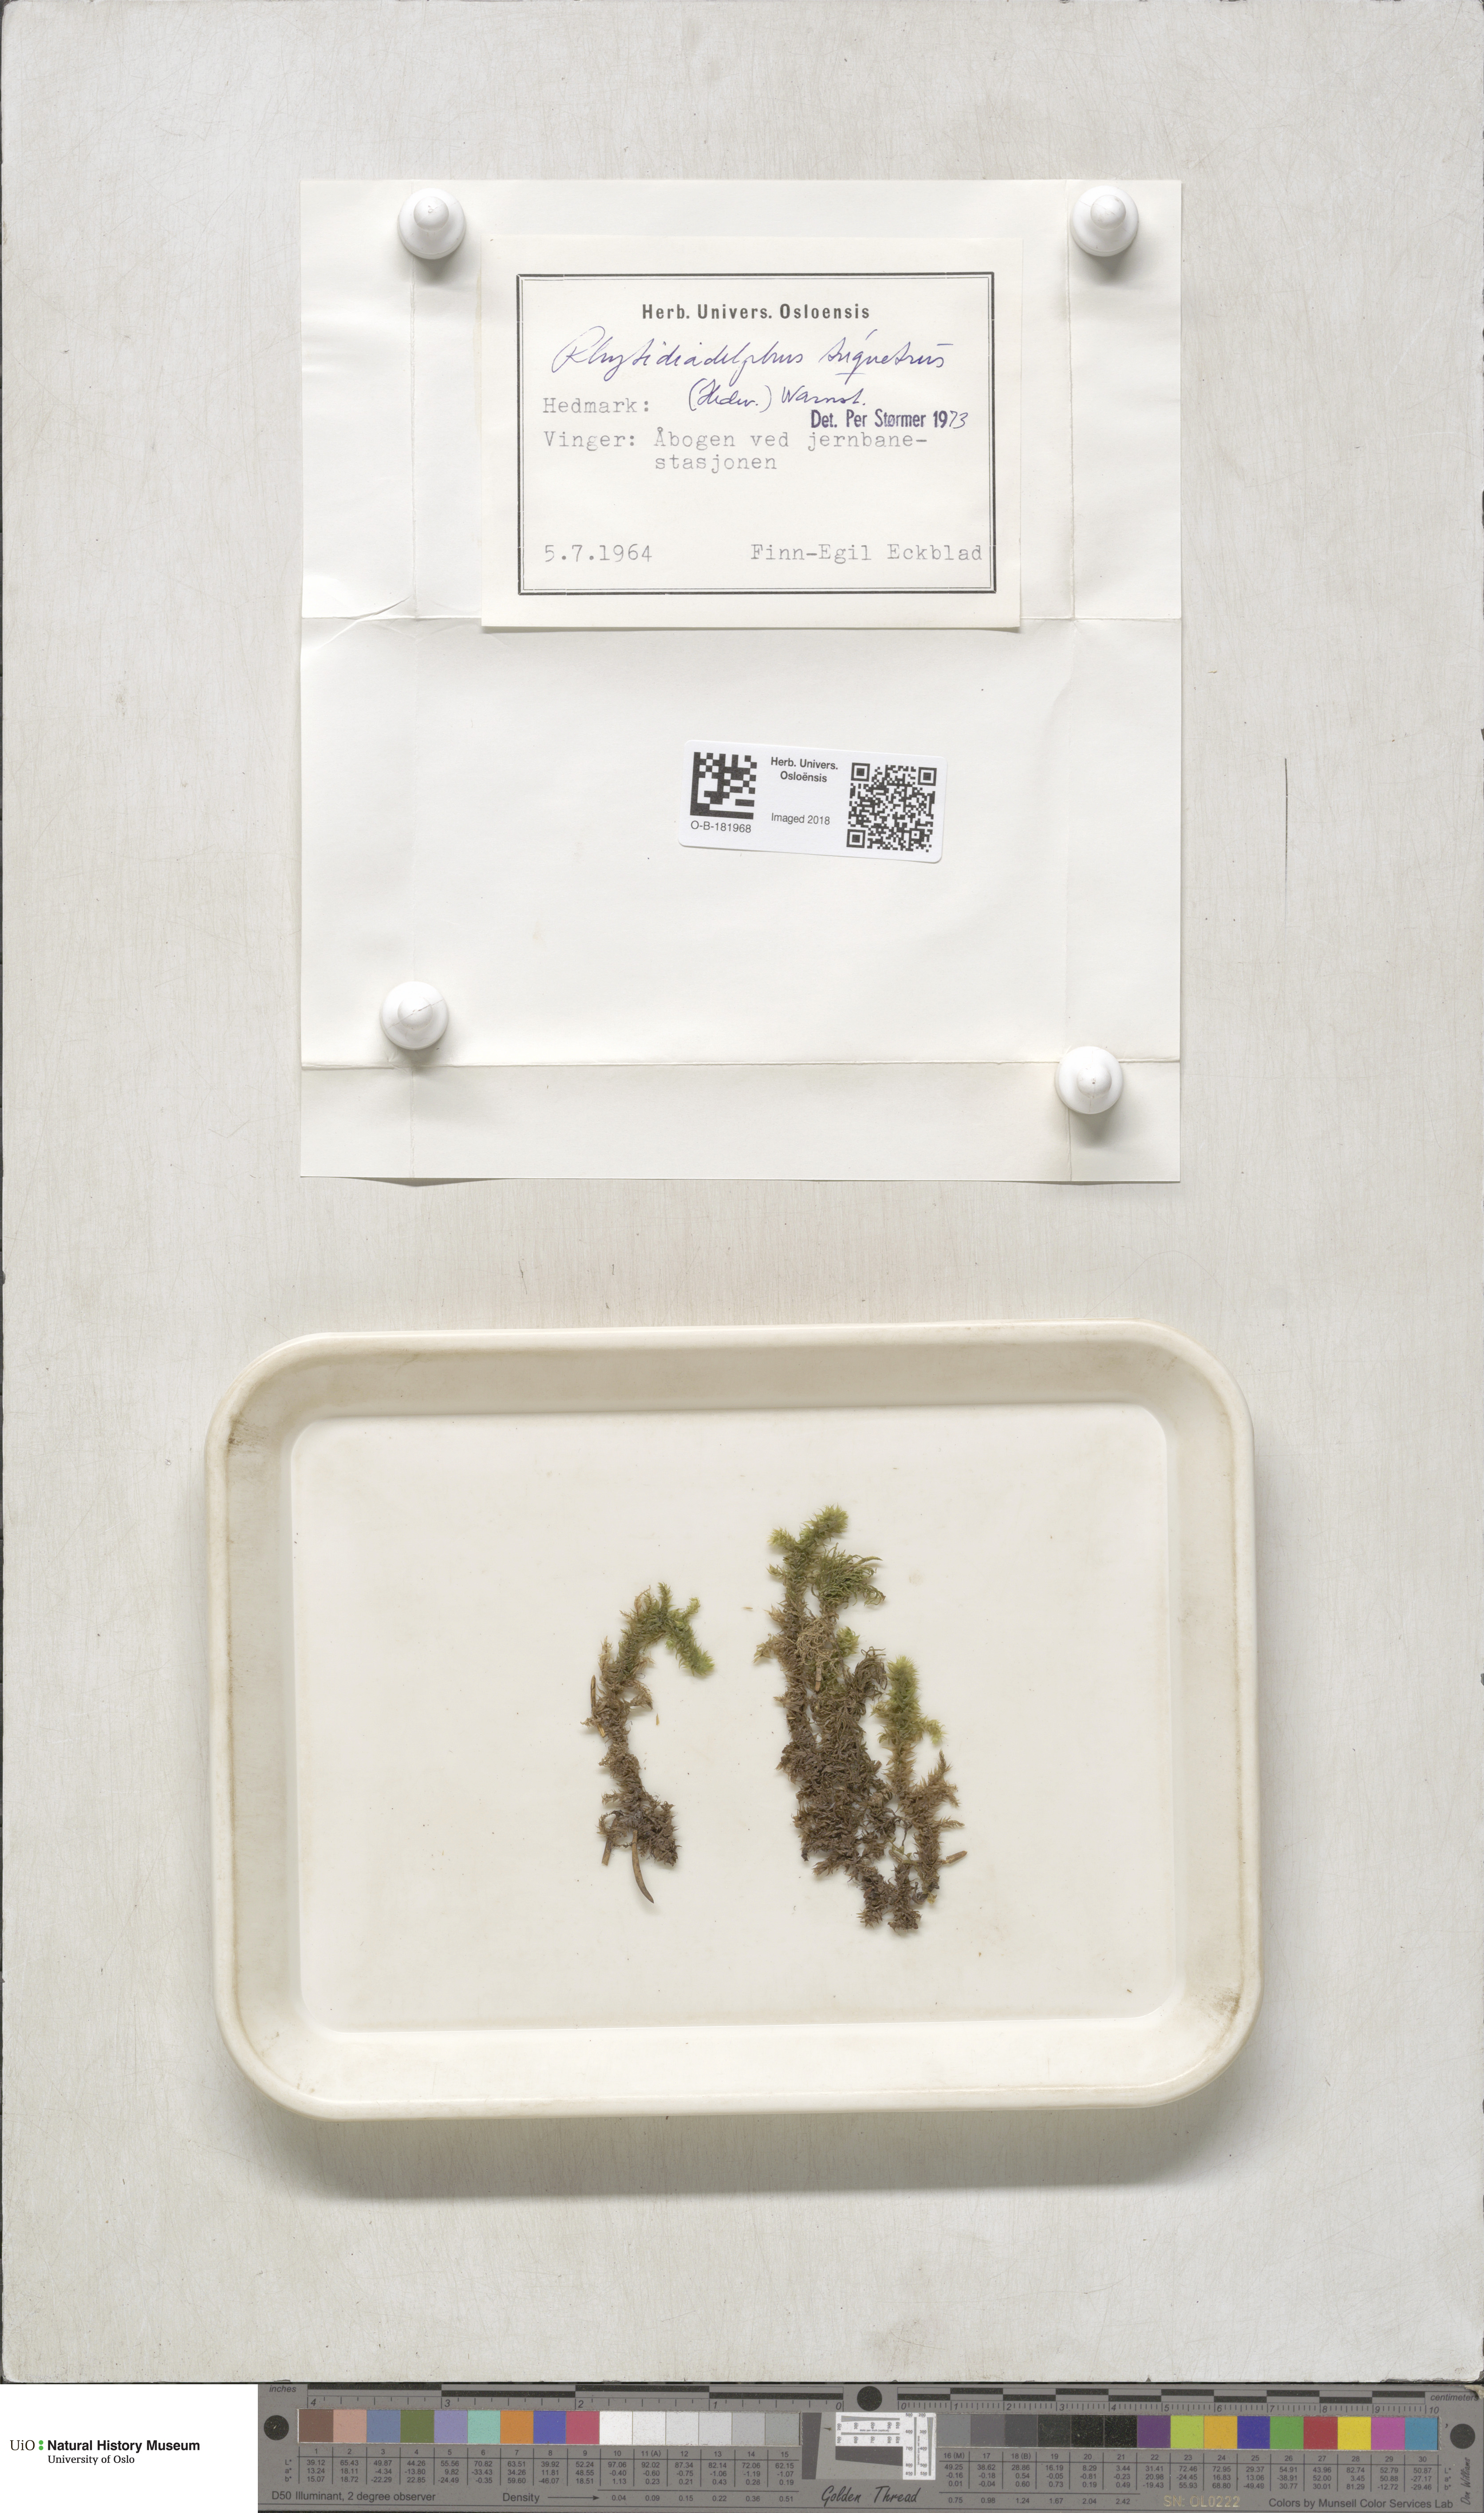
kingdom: Plantae
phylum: Bryophyta
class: Bryopsida
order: Hypnales
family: Hylocomiaceae
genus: Hylocomiadelphus
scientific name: Hylocomiadelphus triquetrus
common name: Rough goose neck moss
